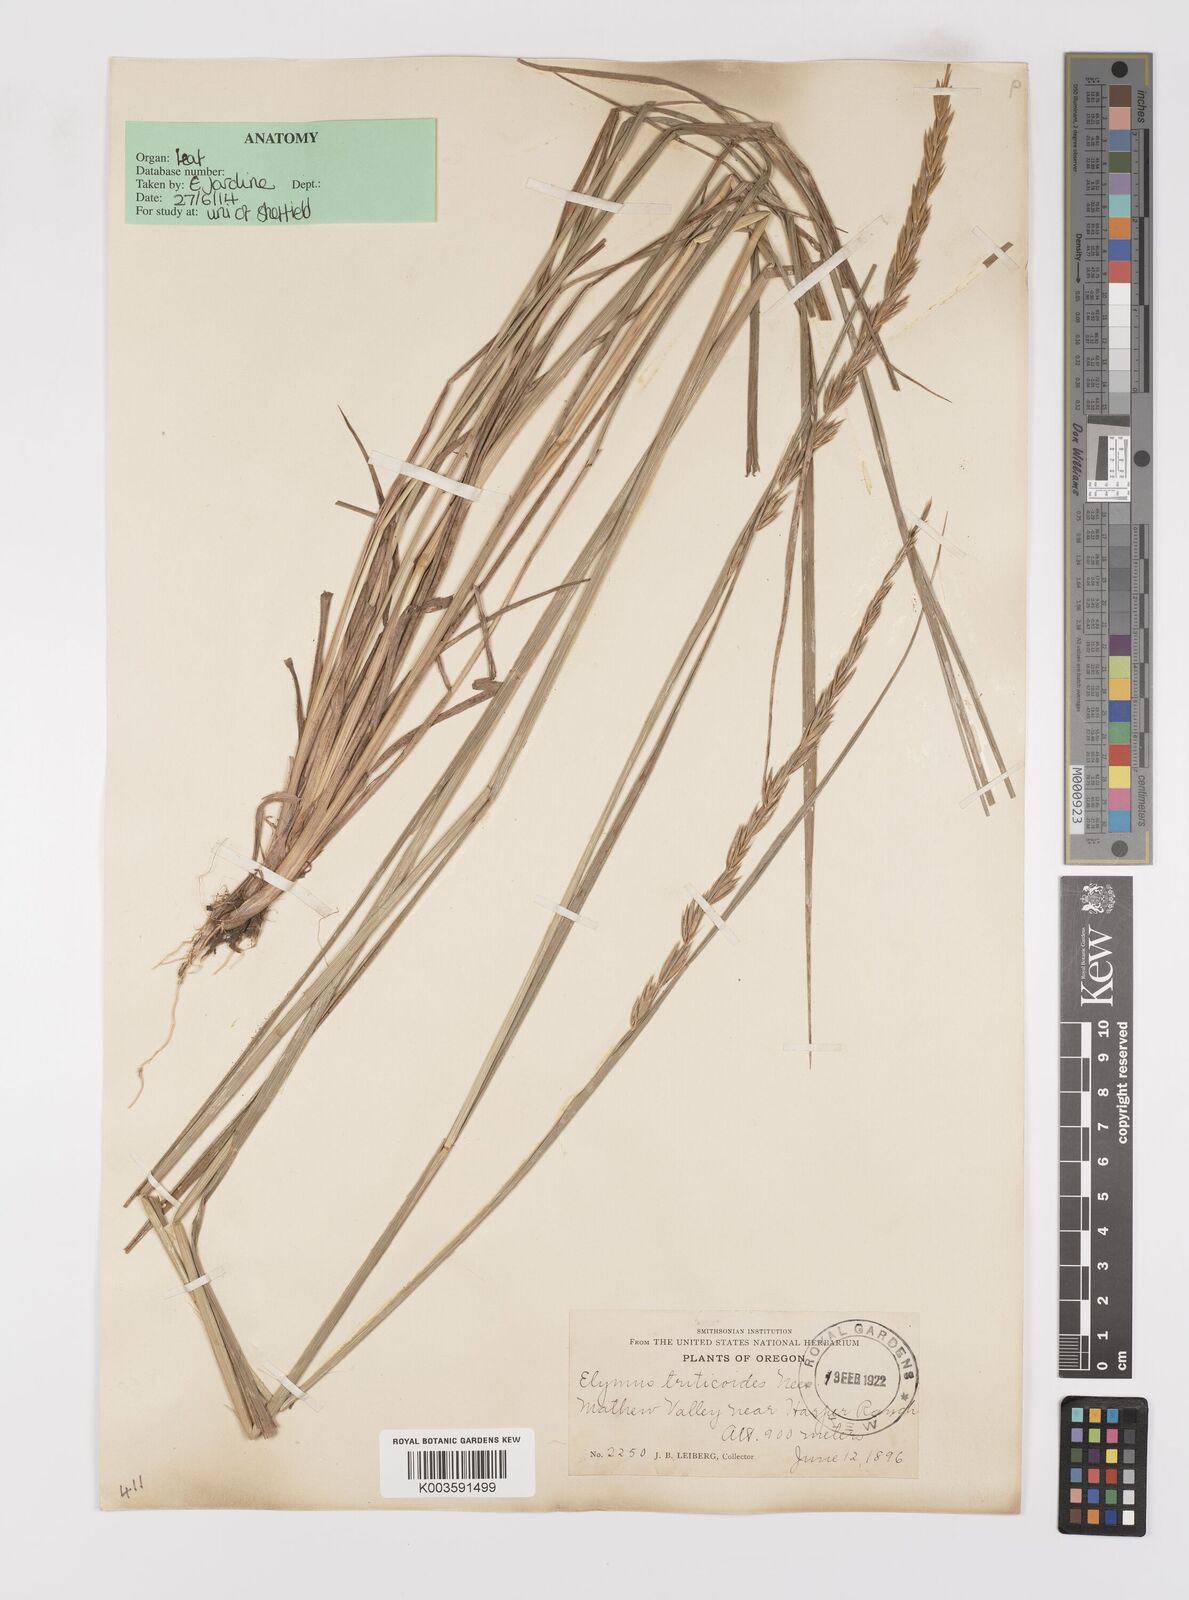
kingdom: Plantae
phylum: Tracheophyta
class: Liliopsida
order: Poales
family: Poaceae
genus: Leymus
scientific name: Leymus triticoides
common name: Beardless wild rye
